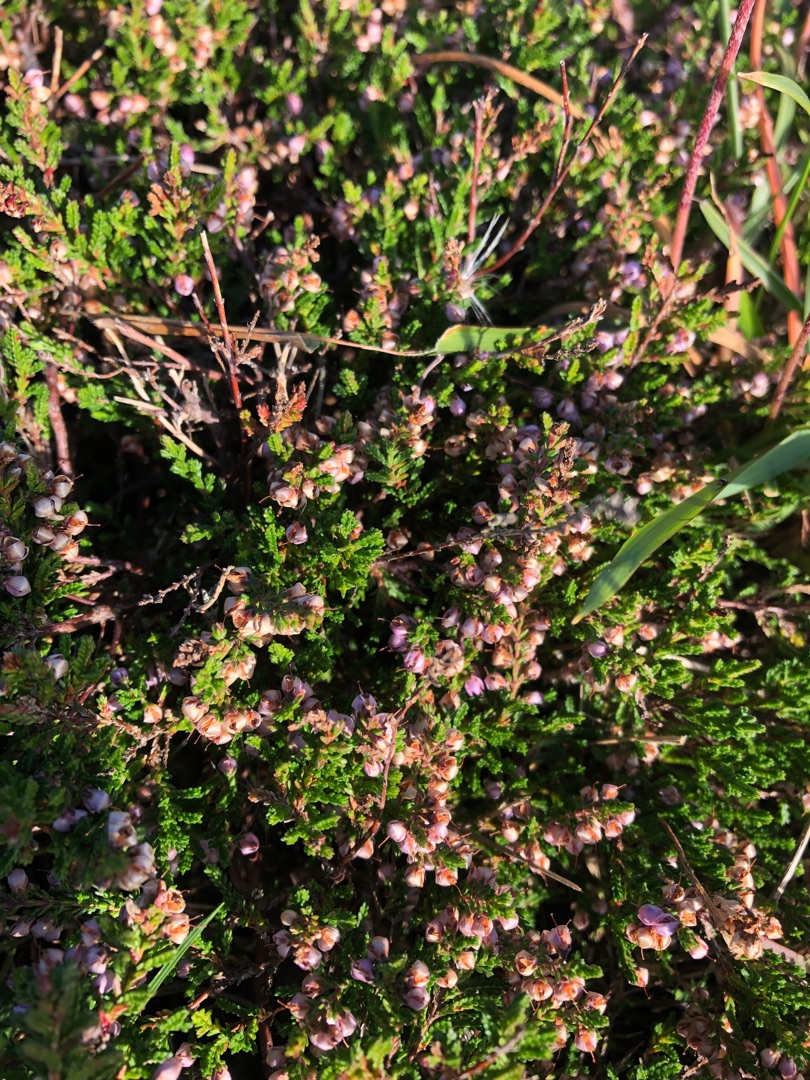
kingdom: Plantae
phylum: Tracheophyta
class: Magnoliopsida
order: Ericales
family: Ericaceae
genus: Calluna
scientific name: Calluna vulgaris
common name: Hedelyng
